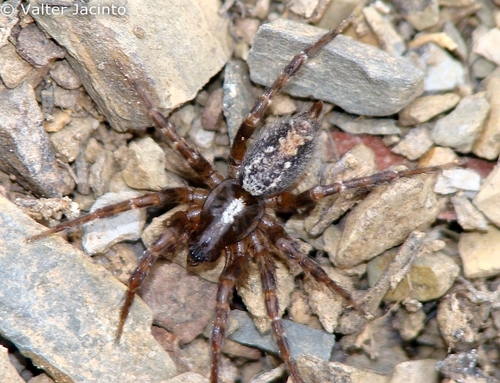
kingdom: Animalia
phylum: Arthropoda
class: Arachnida
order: Araneae
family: Agelenidae
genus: Textrix
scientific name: Textrix pinicola
